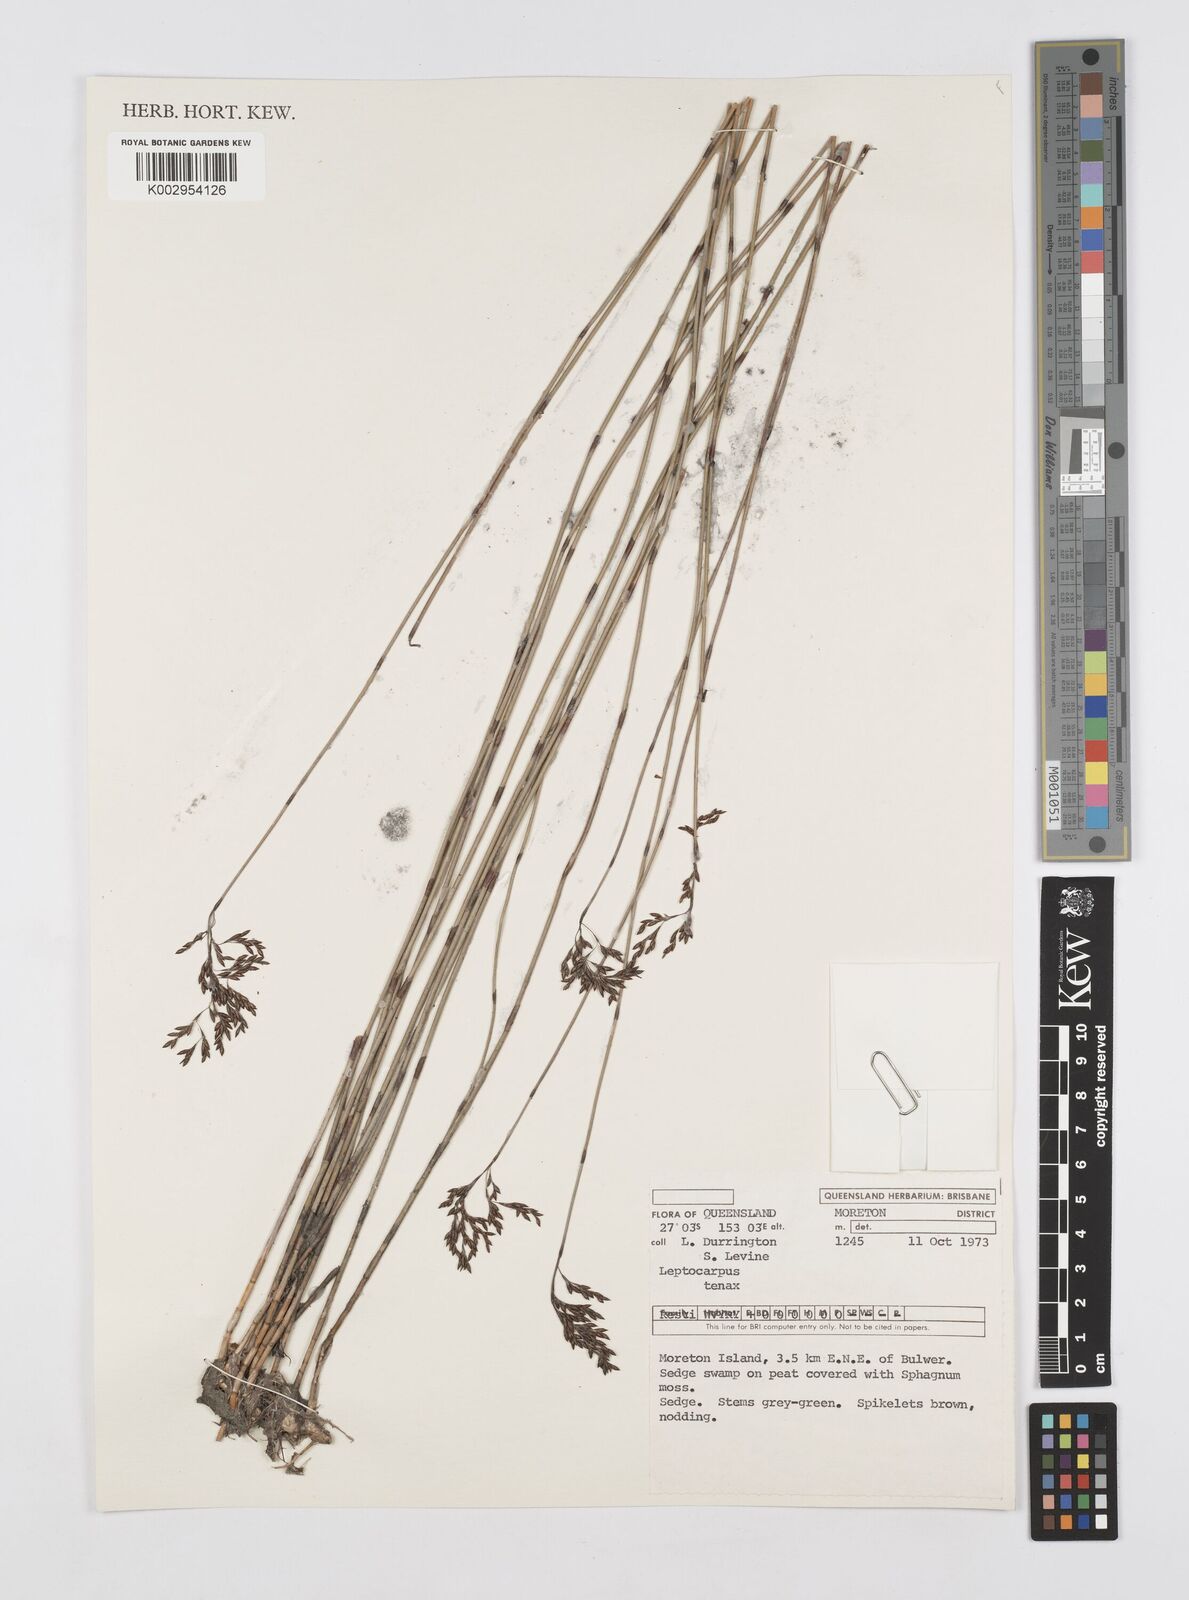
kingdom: Plantae
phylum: Tracheophyta
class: Liliopsida
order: Poales
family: Restionaceae
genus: Leptocarpus
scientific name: Leptocarpus tenax
